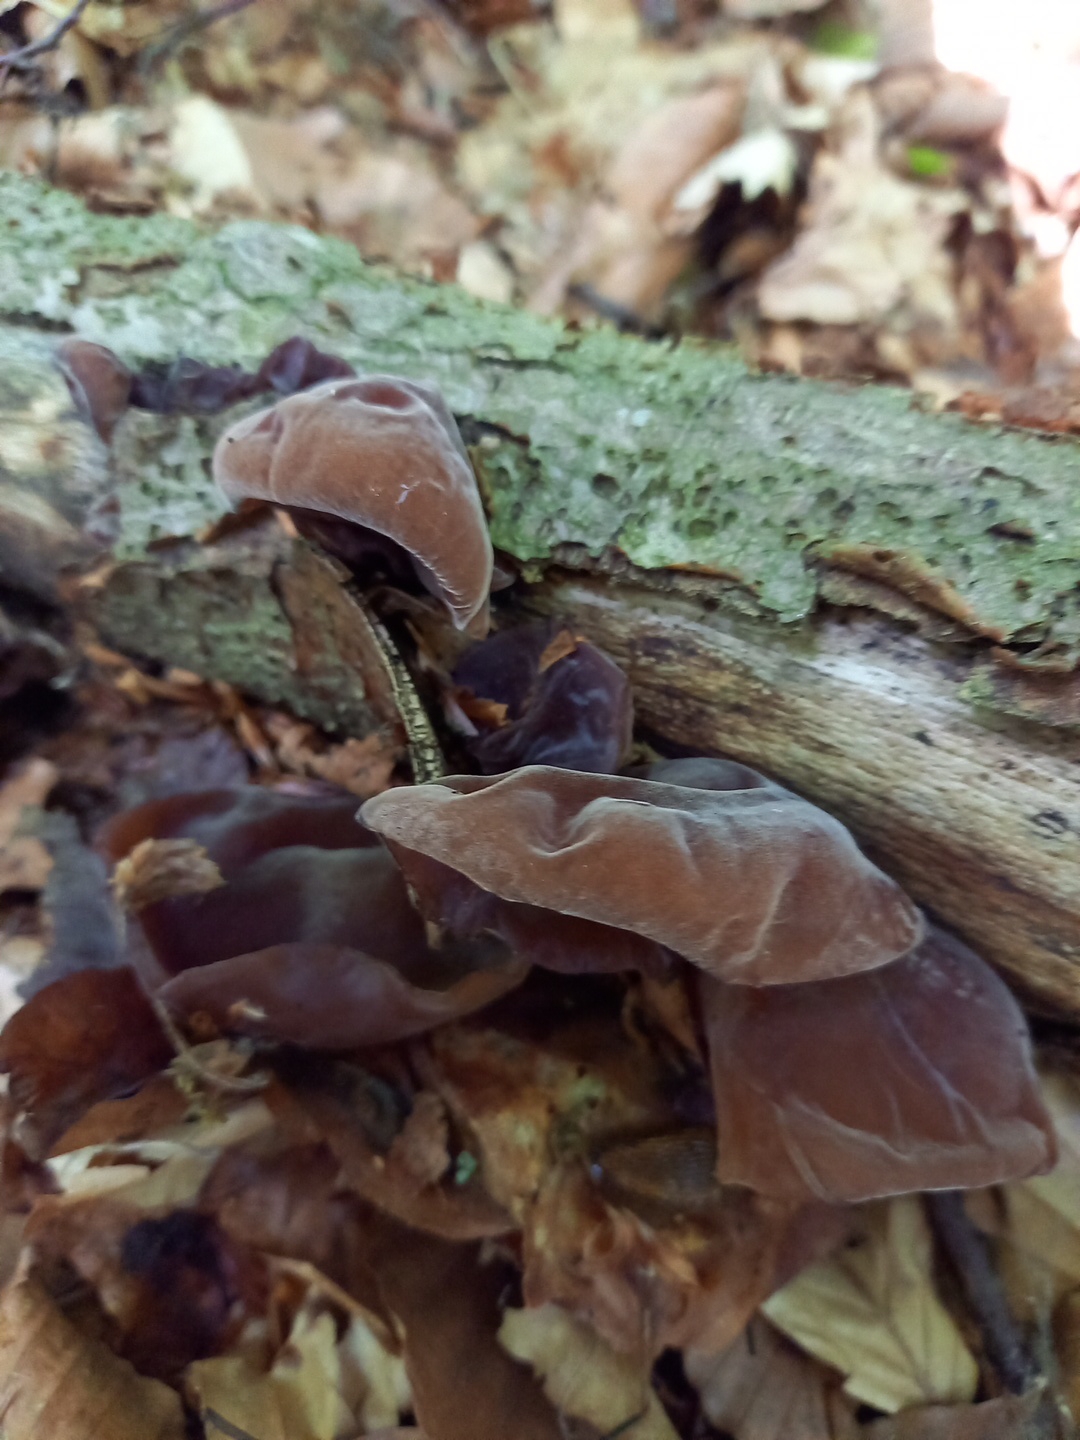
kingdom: Fungi
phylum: Basidiomycota
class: Agaricomycetes
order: Auriculariales
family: Auriculariaceae
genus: Auricularia
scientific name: Auricularia auricula-judae
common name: almindelig judasøre
